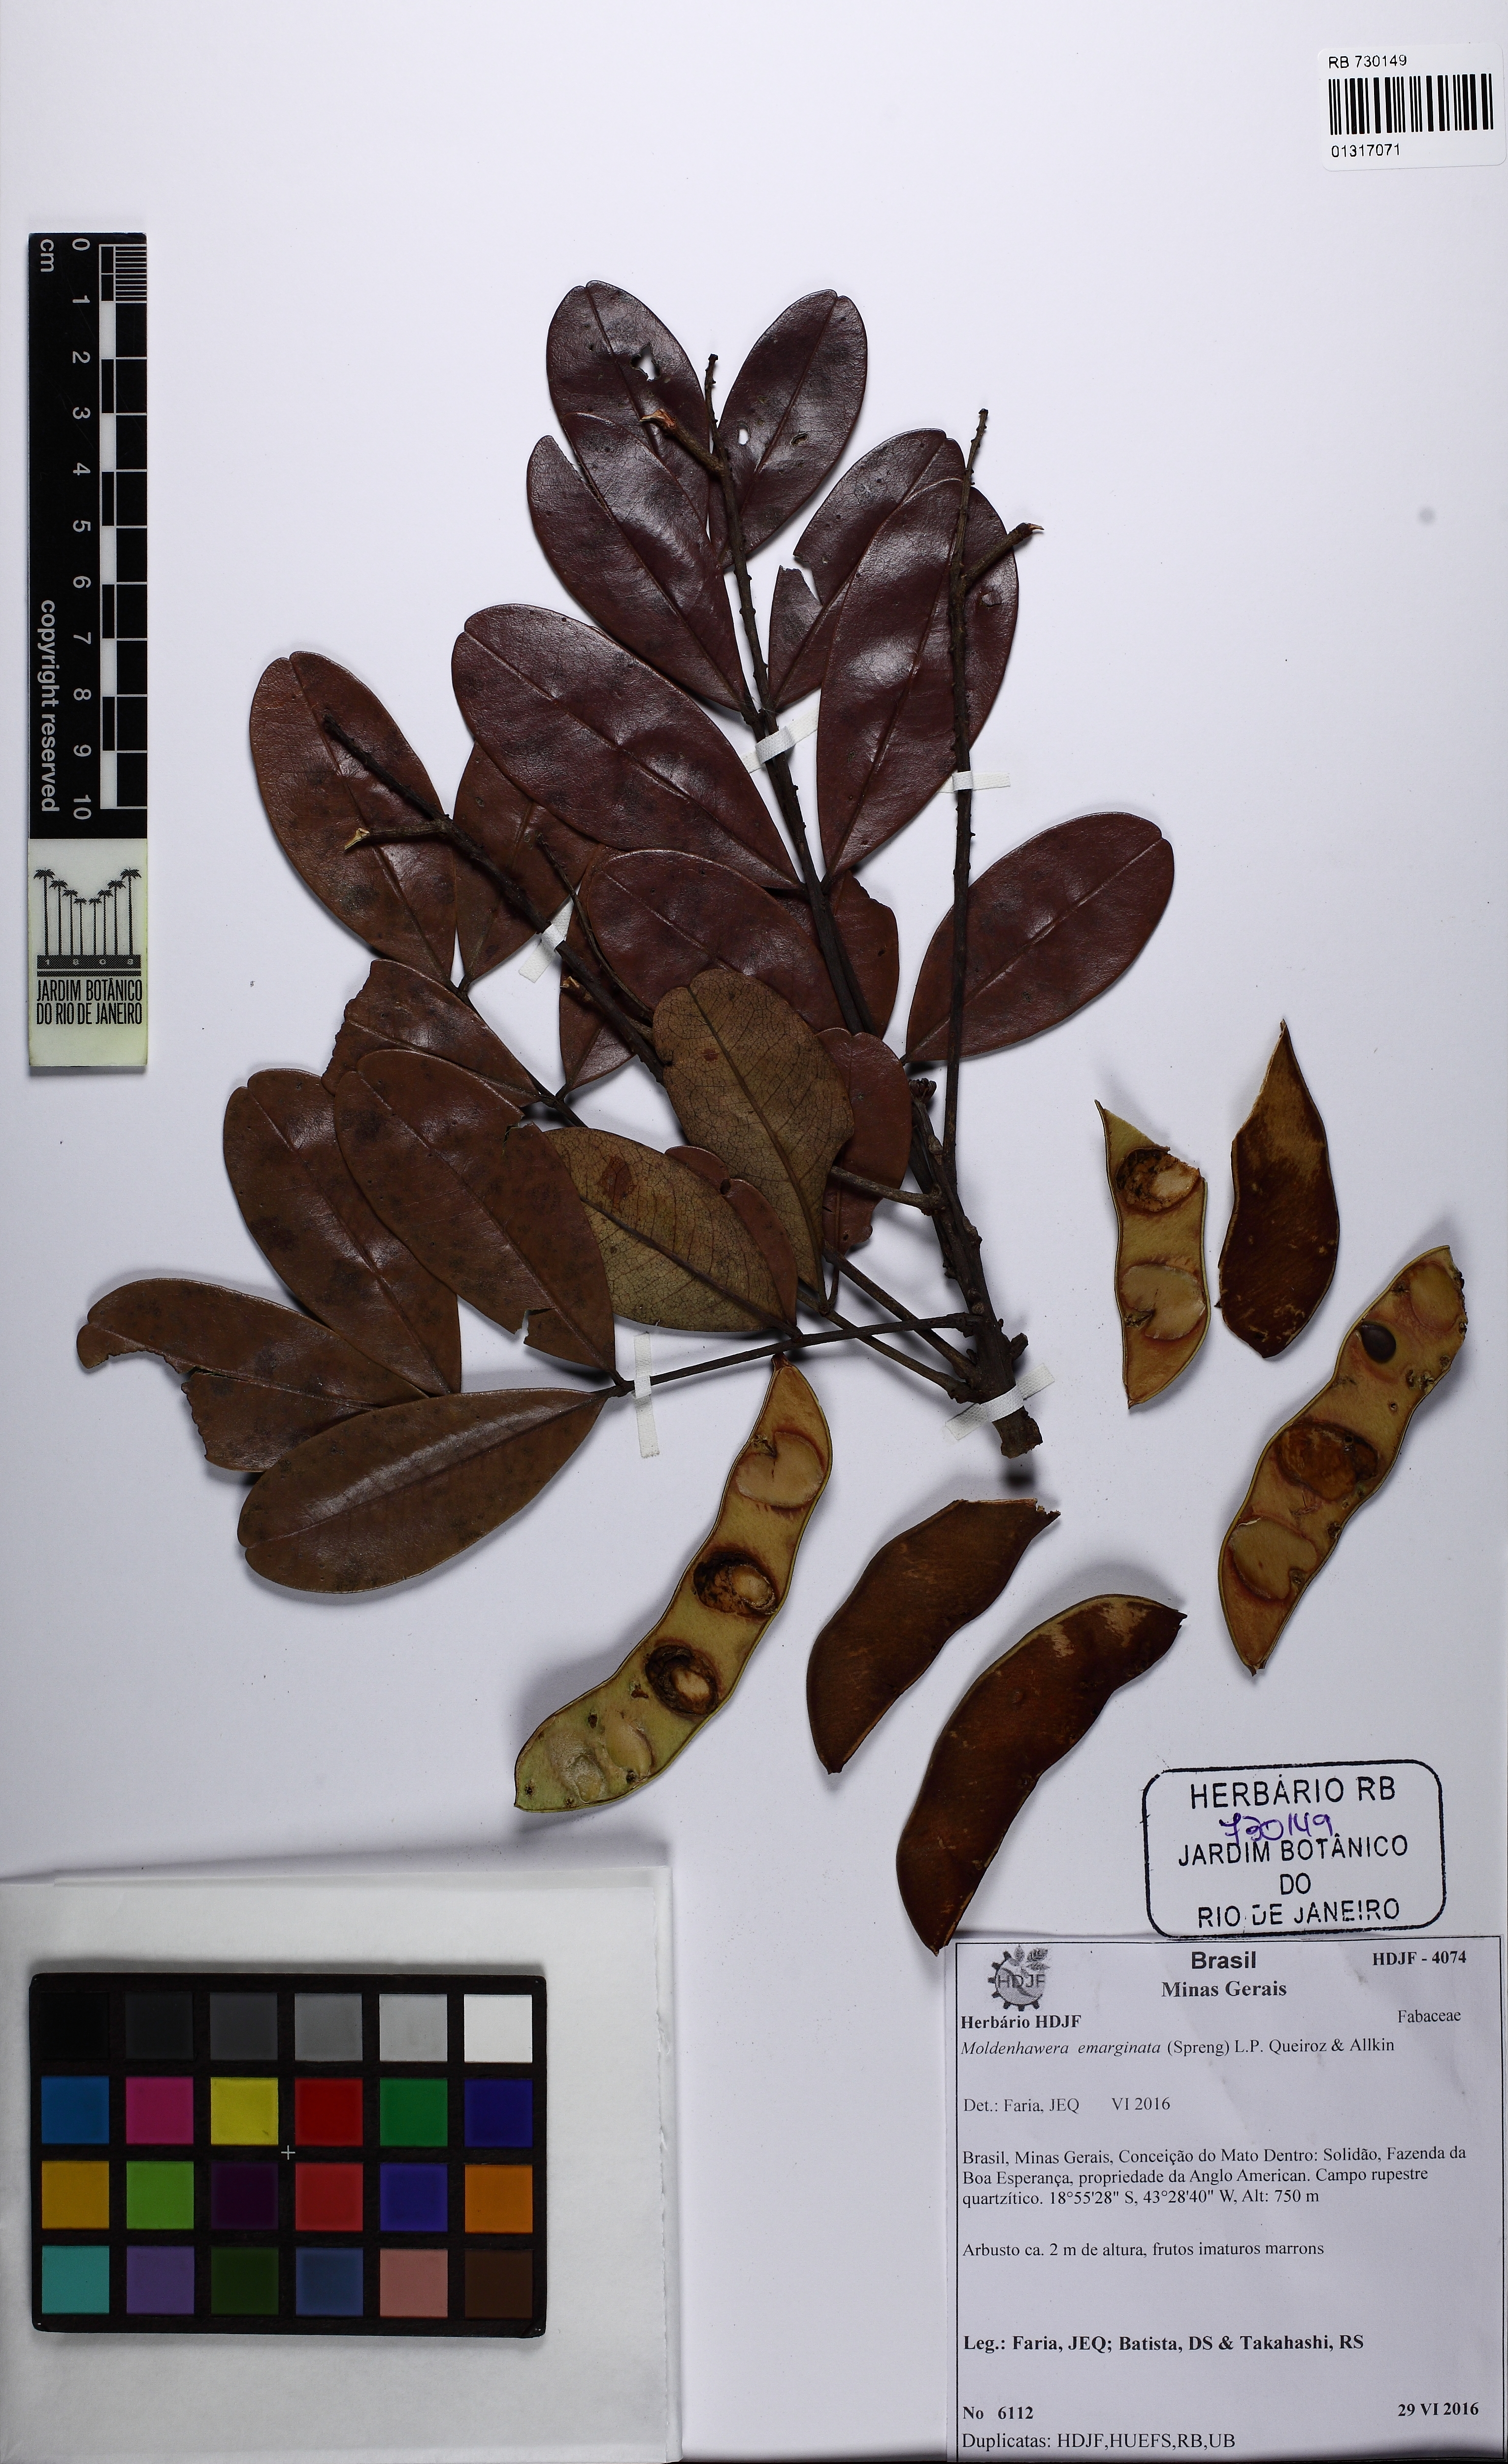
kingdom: Plantae
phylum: Tracheophyta
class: Magnoliopsida
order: Fabales
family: Fabaceae
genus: Moldenhawera
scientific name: Moldenhawera emarginata
